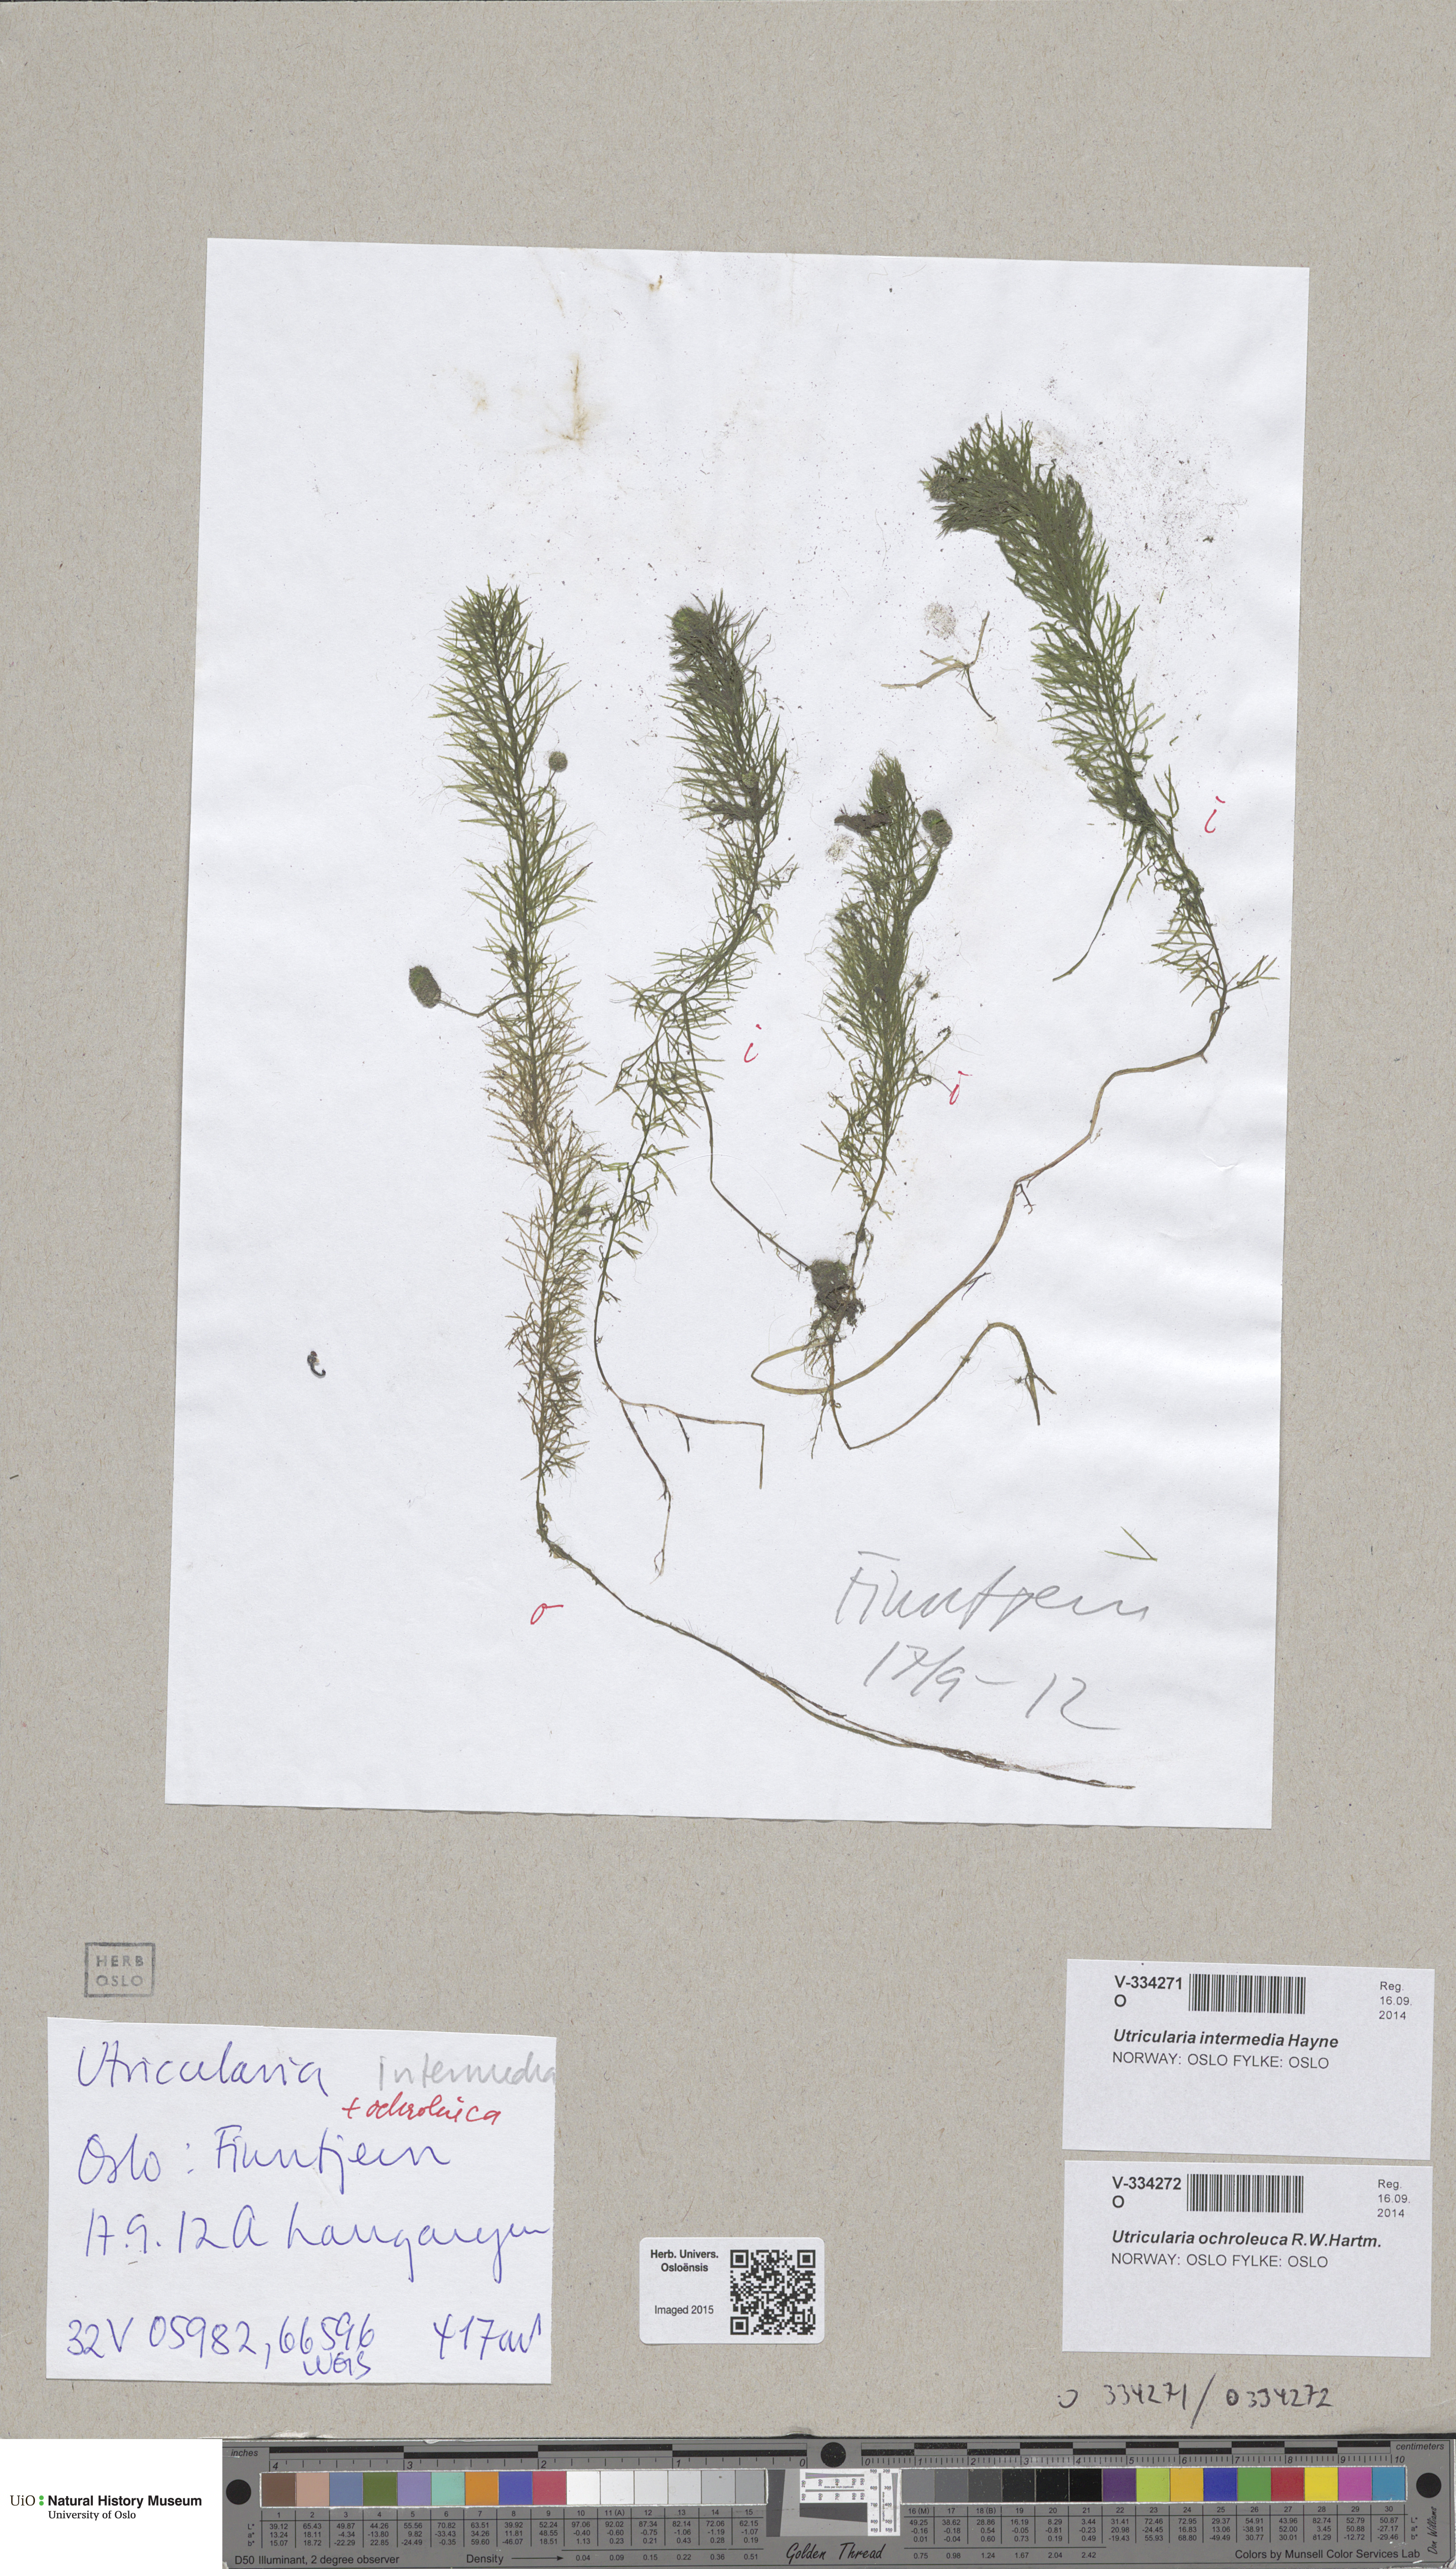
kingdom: Plantae
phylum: Tracheophyta
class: Magnoliopsida
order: Lamiales
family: Lentibulariaceae
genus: Utricularia
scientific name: Utricularia ochroleuca
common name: Pale bladderwort
